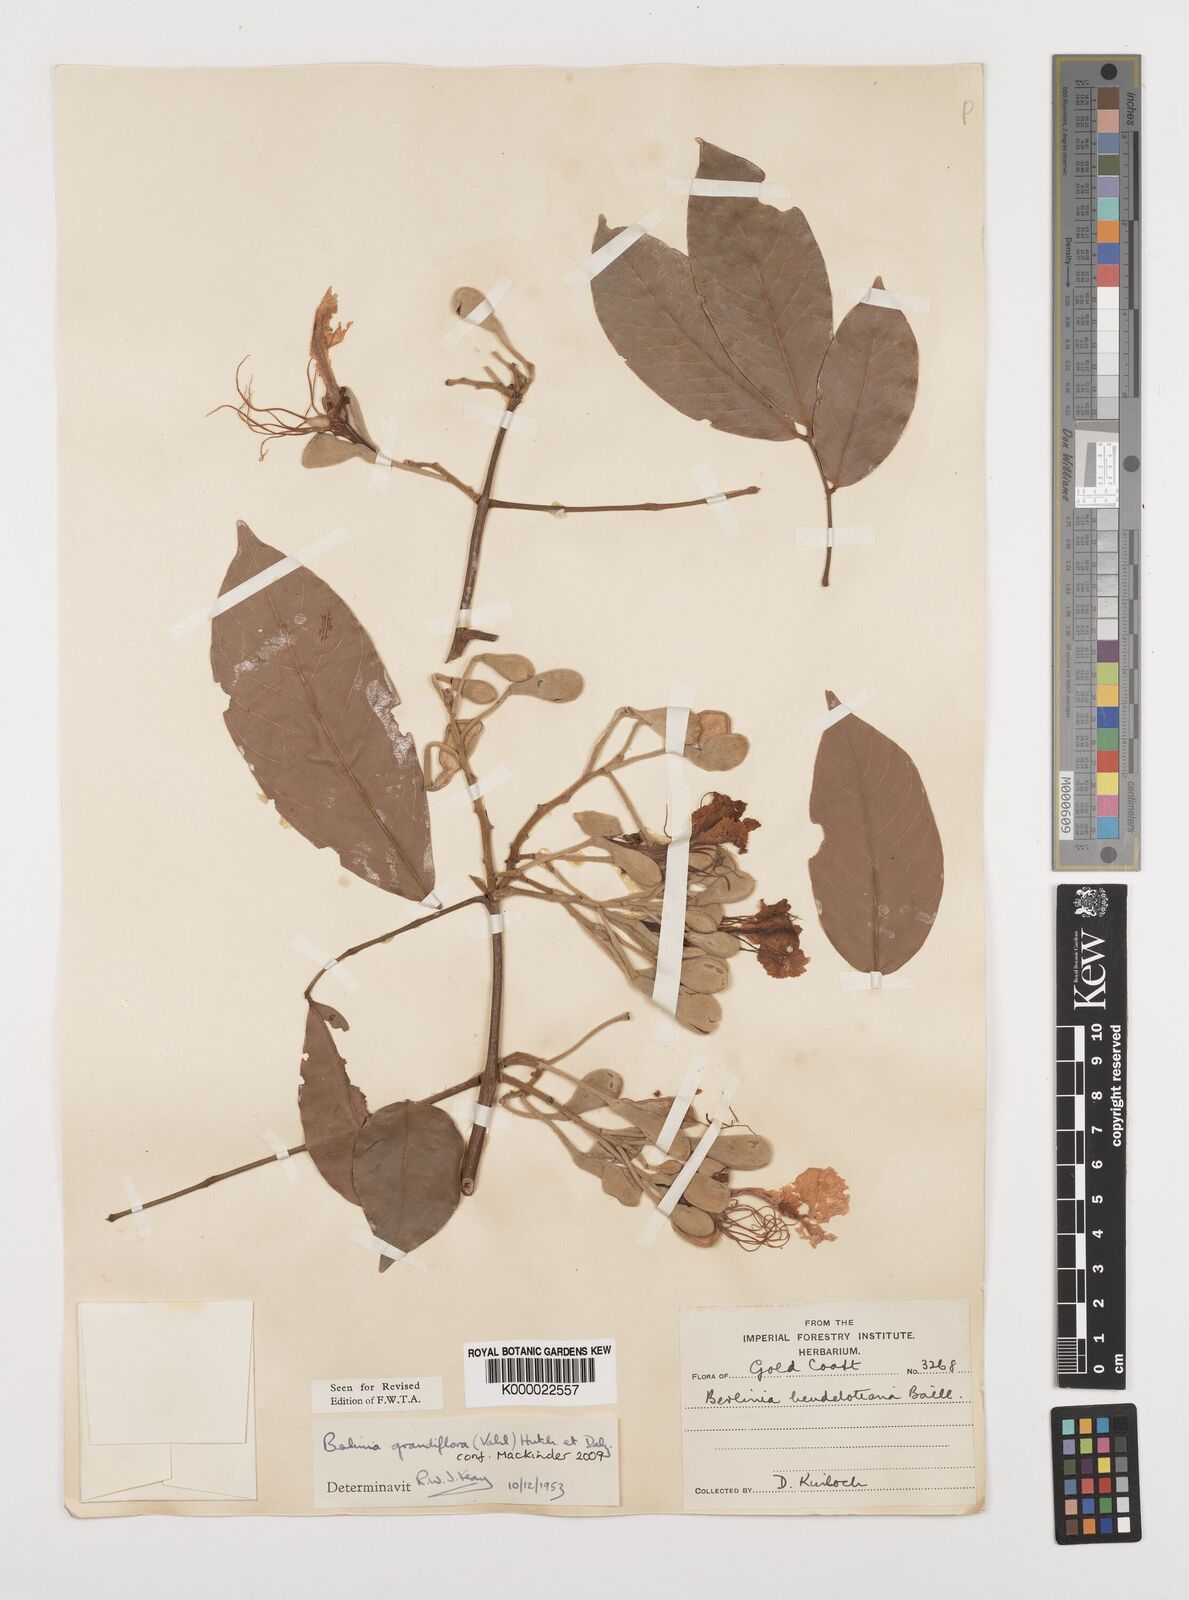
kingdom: Plantae
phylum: Tracheophyta
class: Magnoliopsida
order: Fabales
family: Fabaceae
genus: Berlinia
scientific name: Berlinia grandiflora
